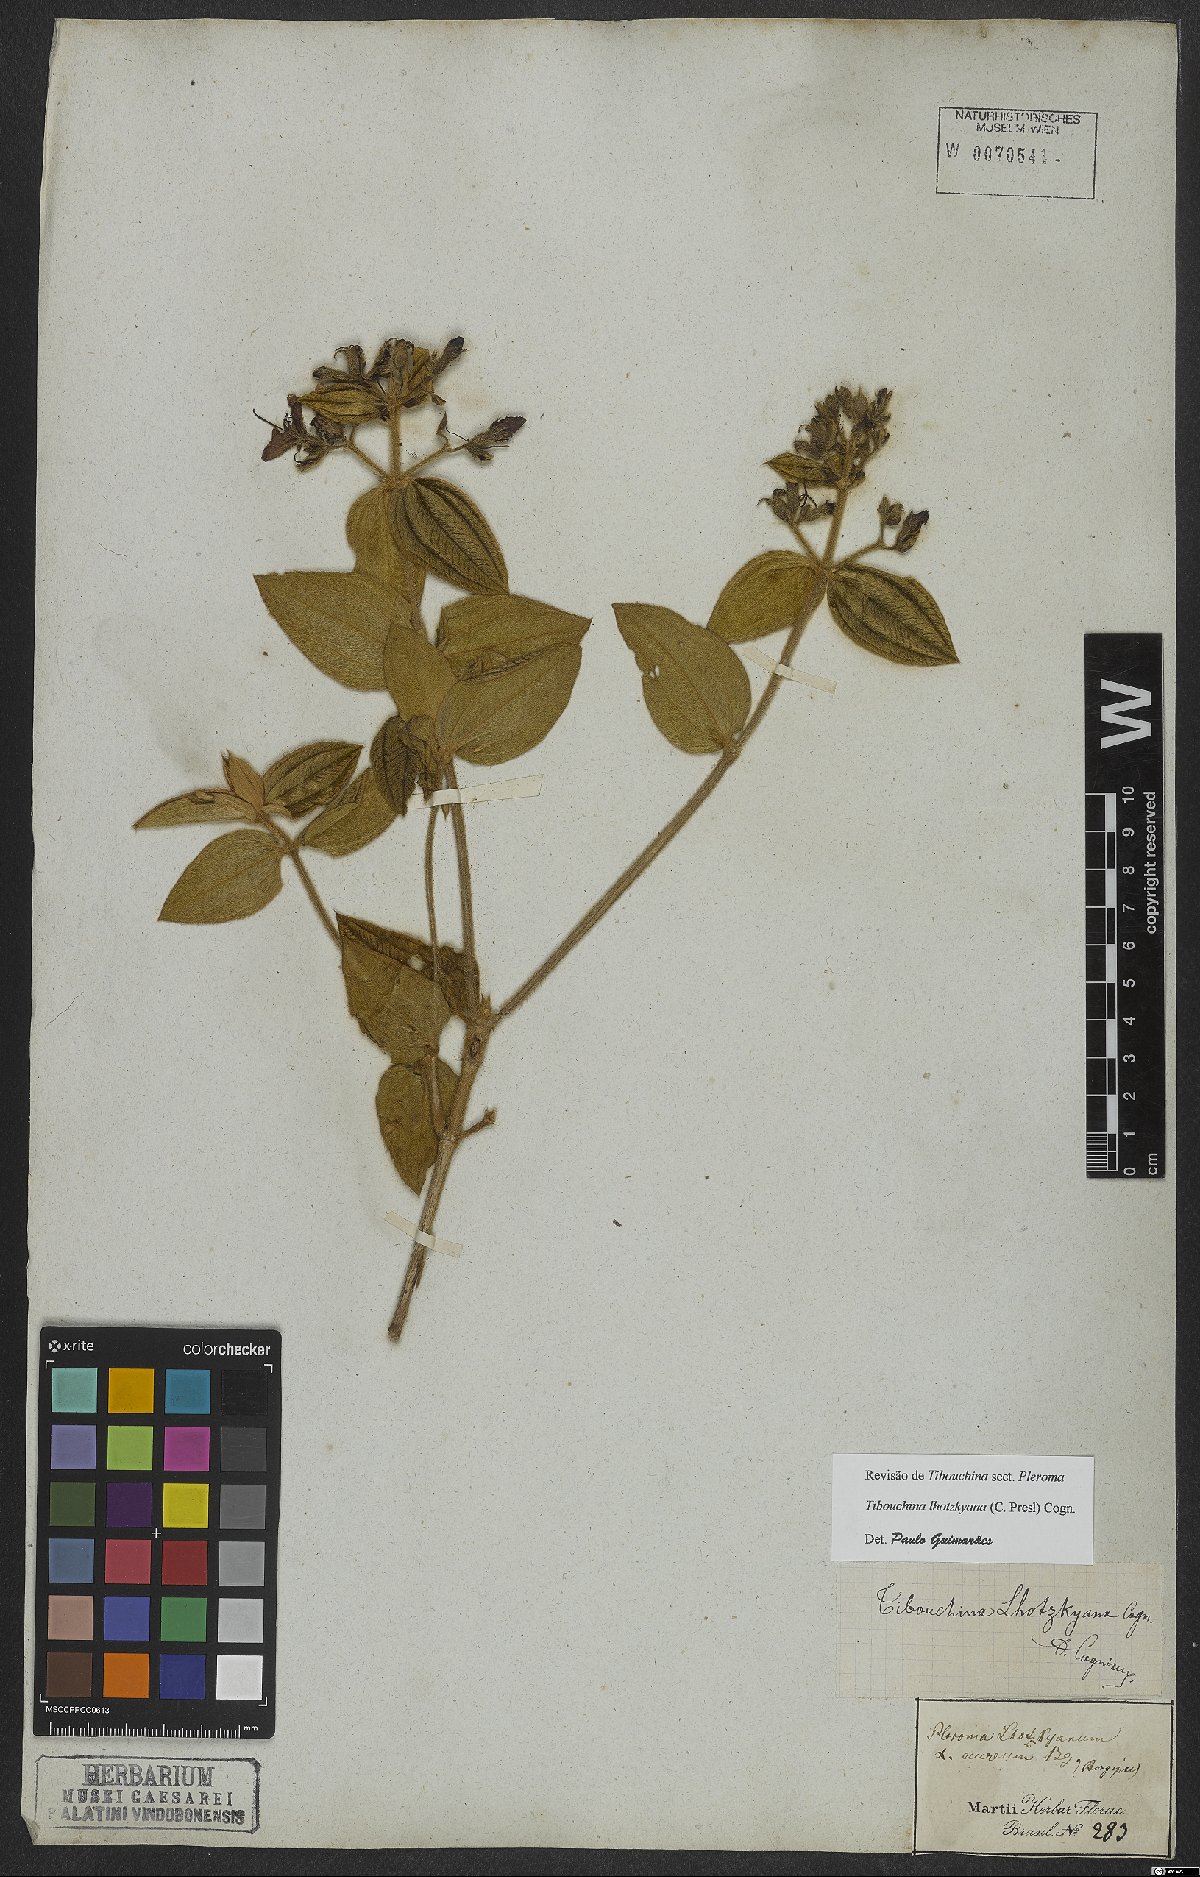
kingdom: Plantae
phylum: Tracheophyta
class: Magnoliopsida
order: Myrtales
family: Melastomataceae
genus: Chaetogastra
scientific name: Chaetogastra lhotskyana
